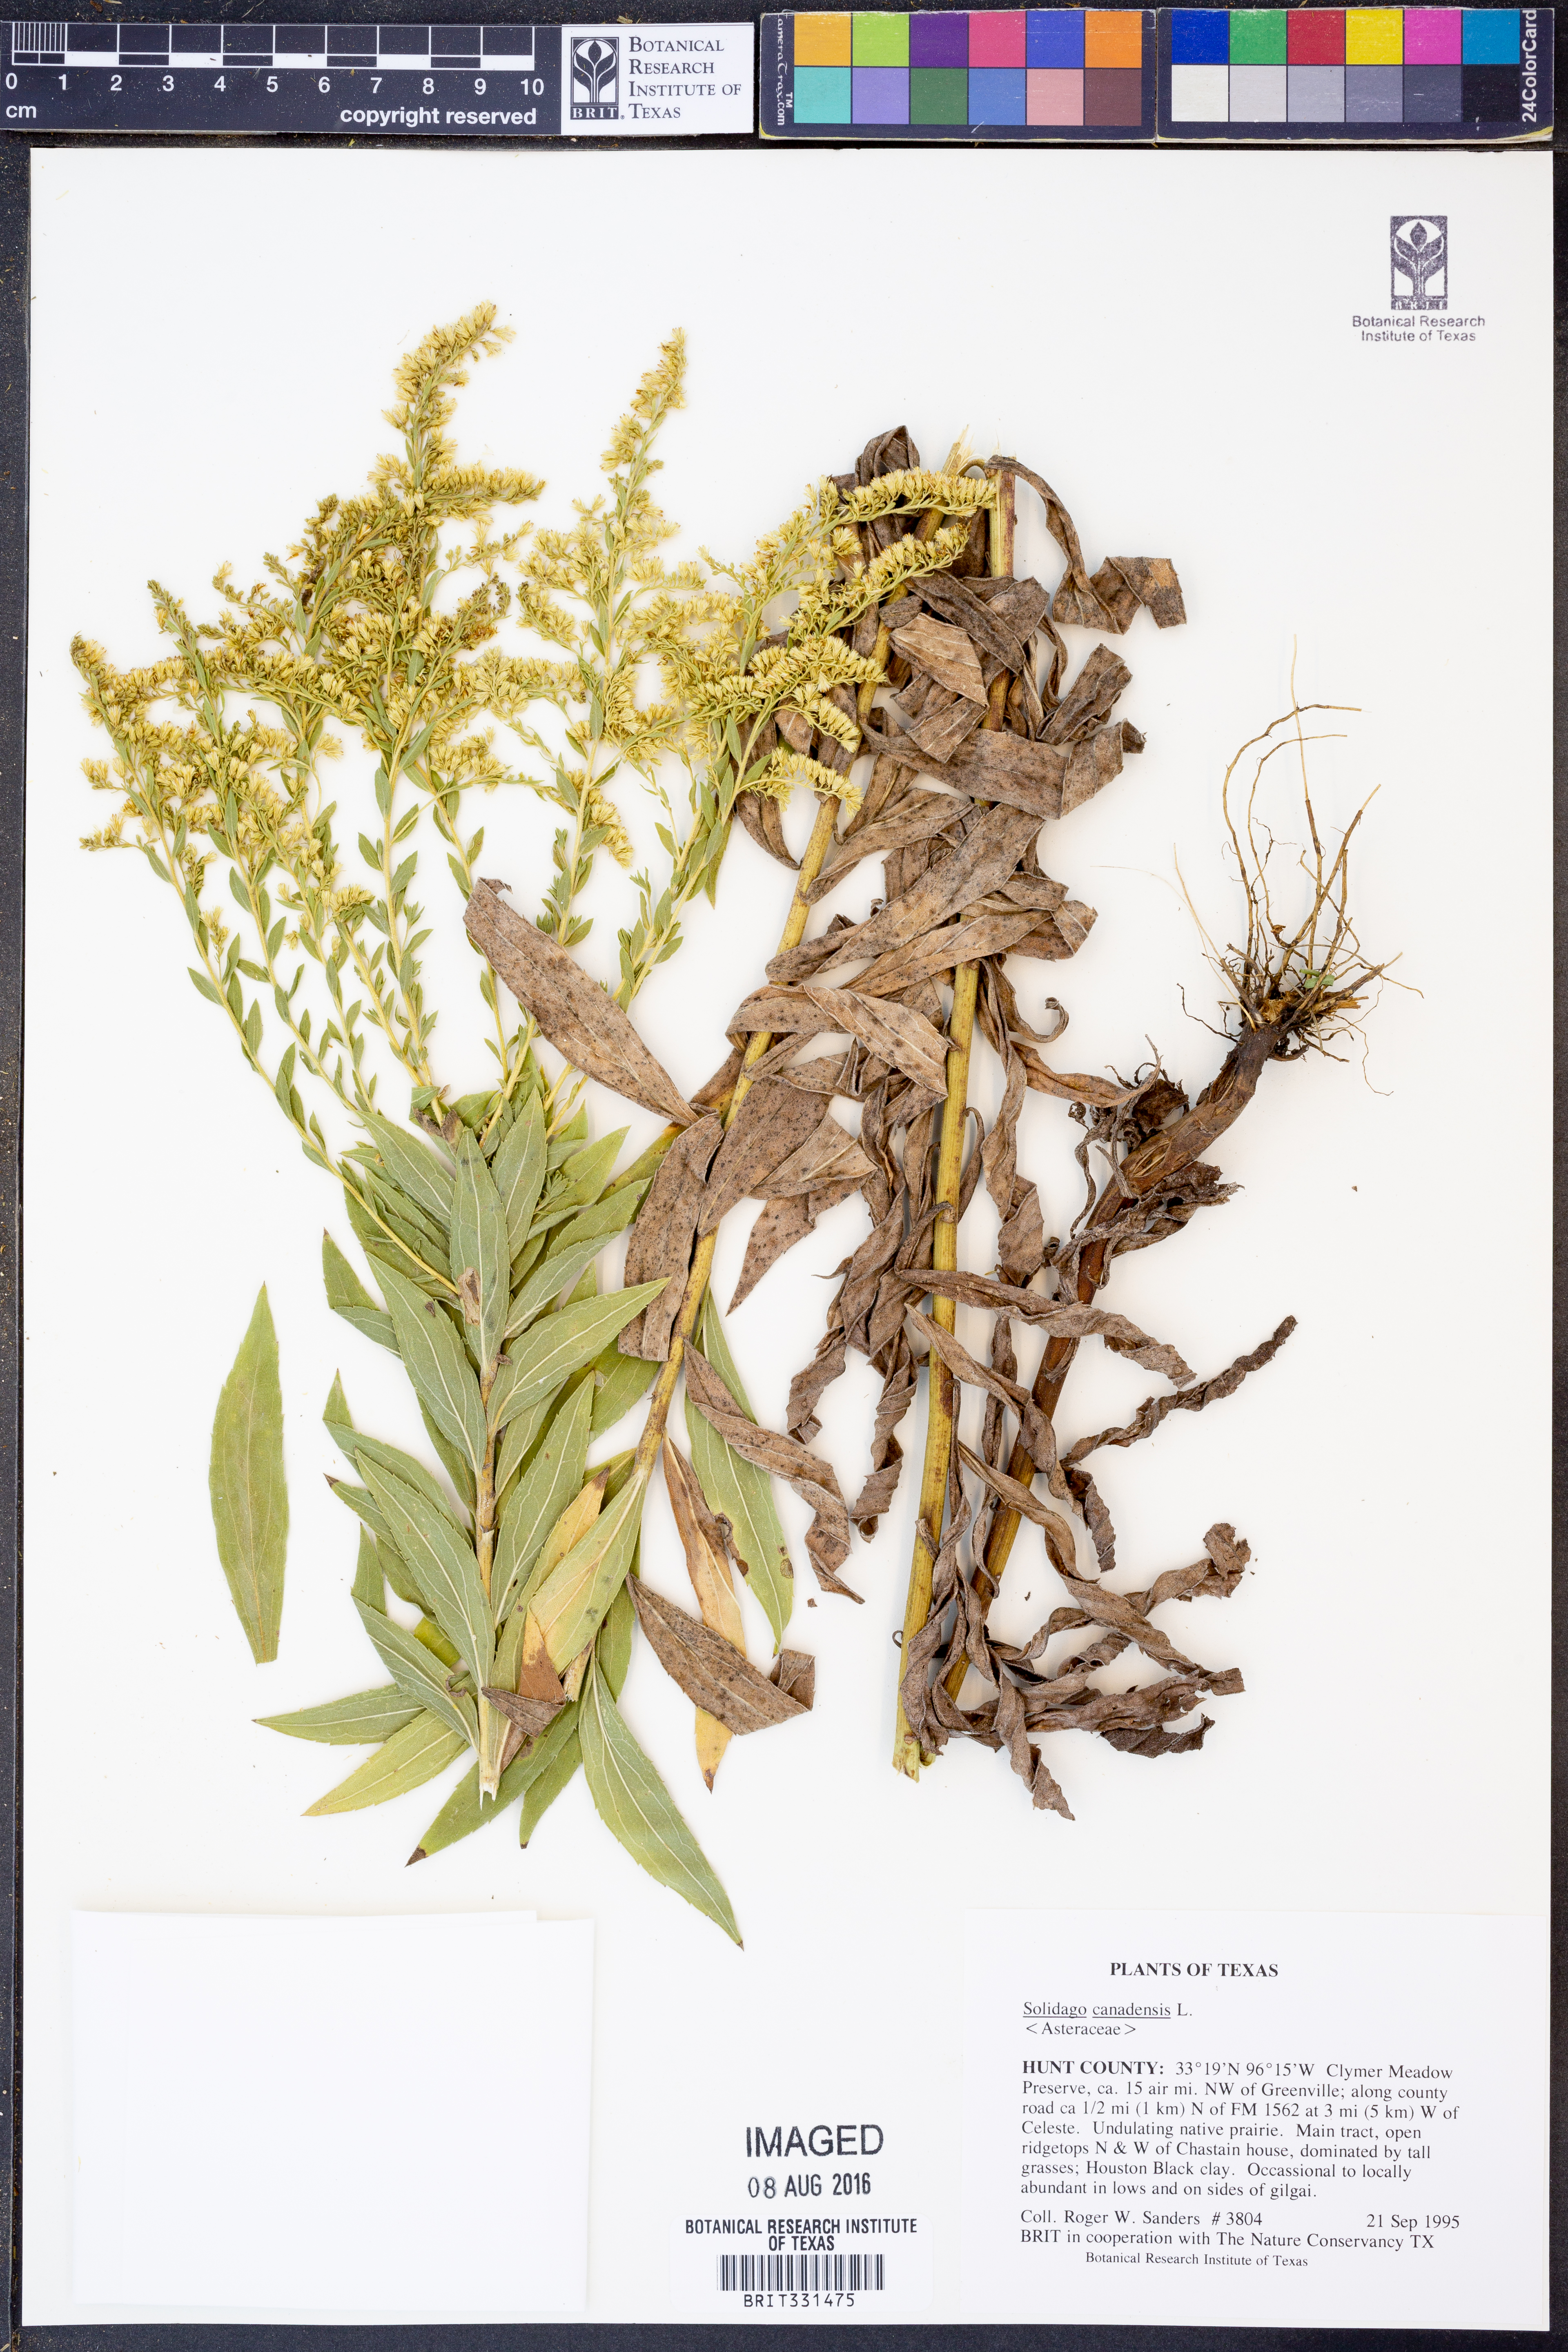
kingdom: Plantae
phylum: Tracheophyta
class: Magnoliopsida
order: Asterales
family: Asteraceae
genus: Solidago
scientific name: Solidago canadensis
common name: Canada goldenrod
